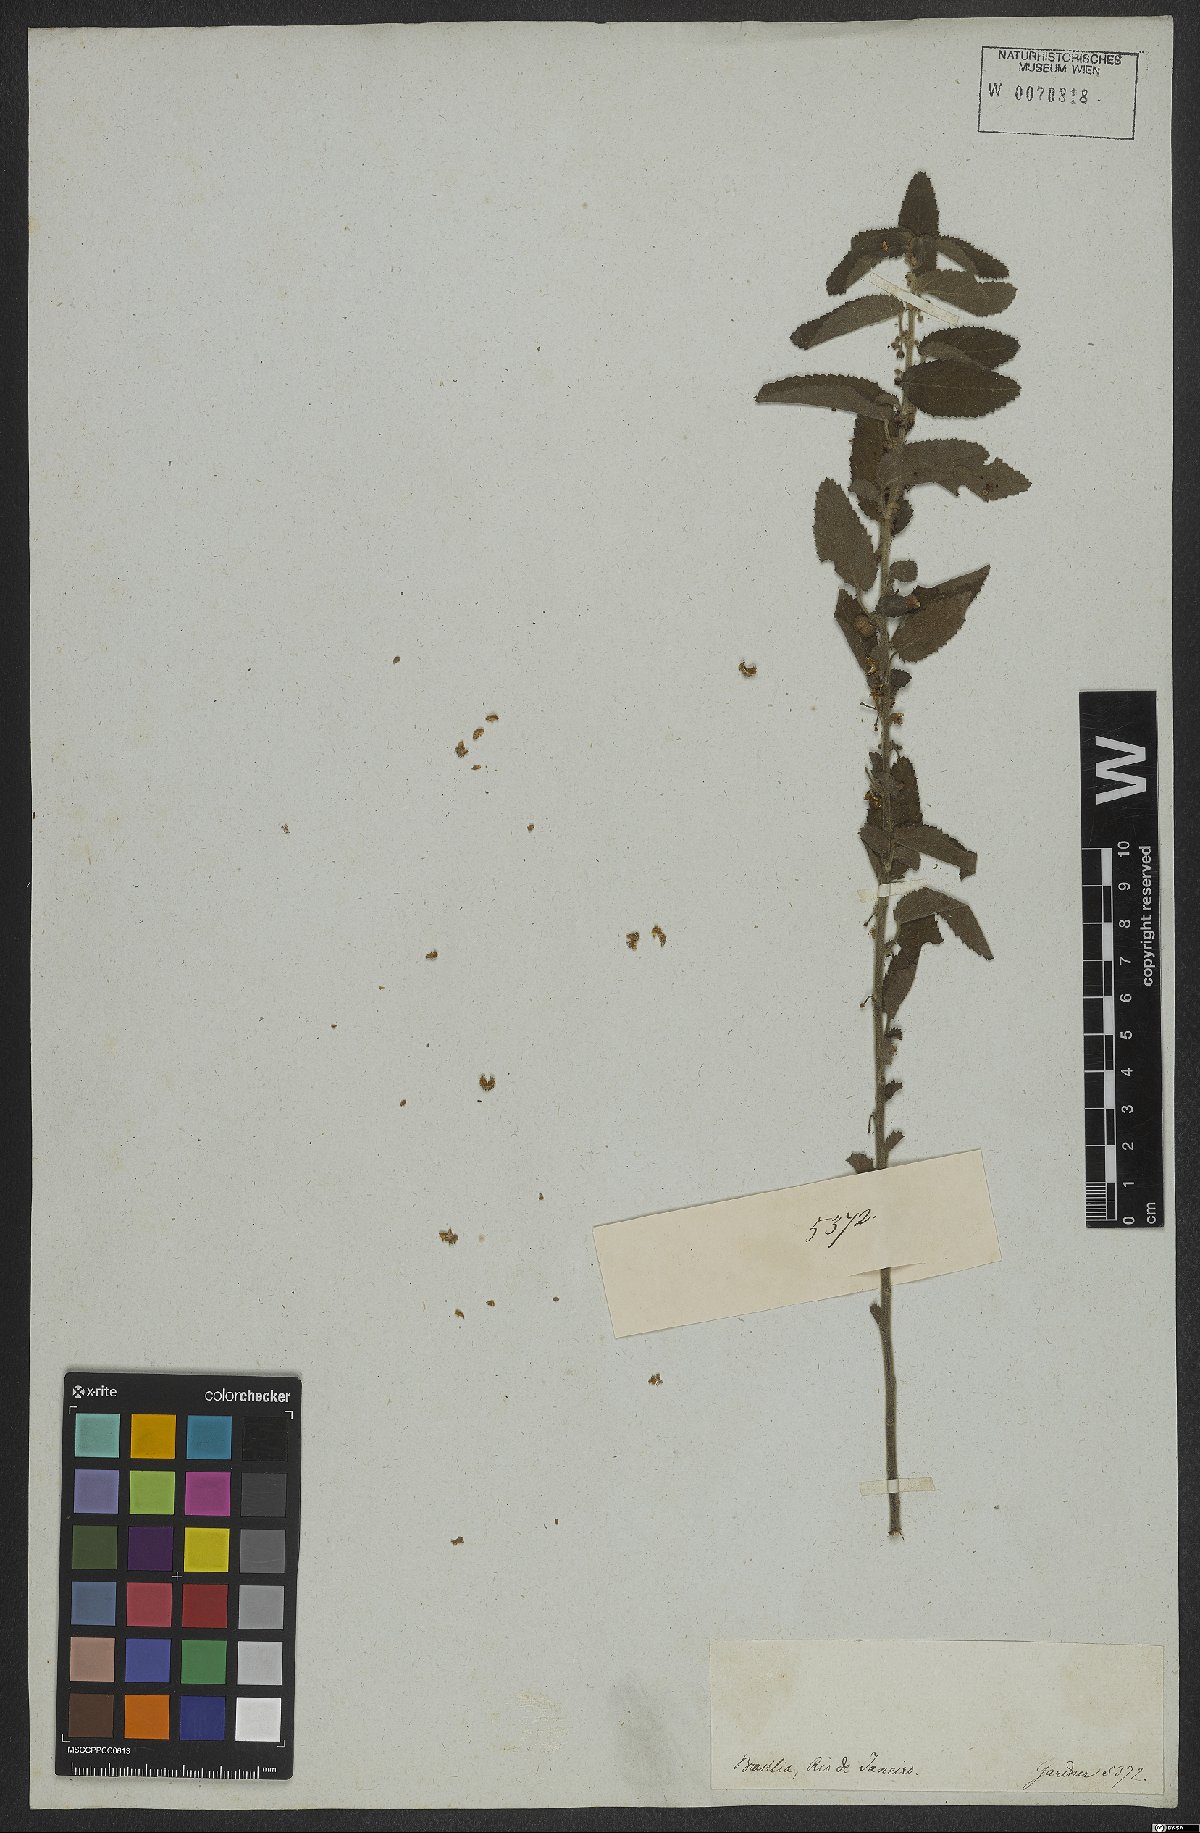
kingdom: Plantae
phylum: Tracheophyta
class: Magnoliopsida
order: Malvales
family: Malvaceae
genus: Ayenia
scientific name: Ayenia
